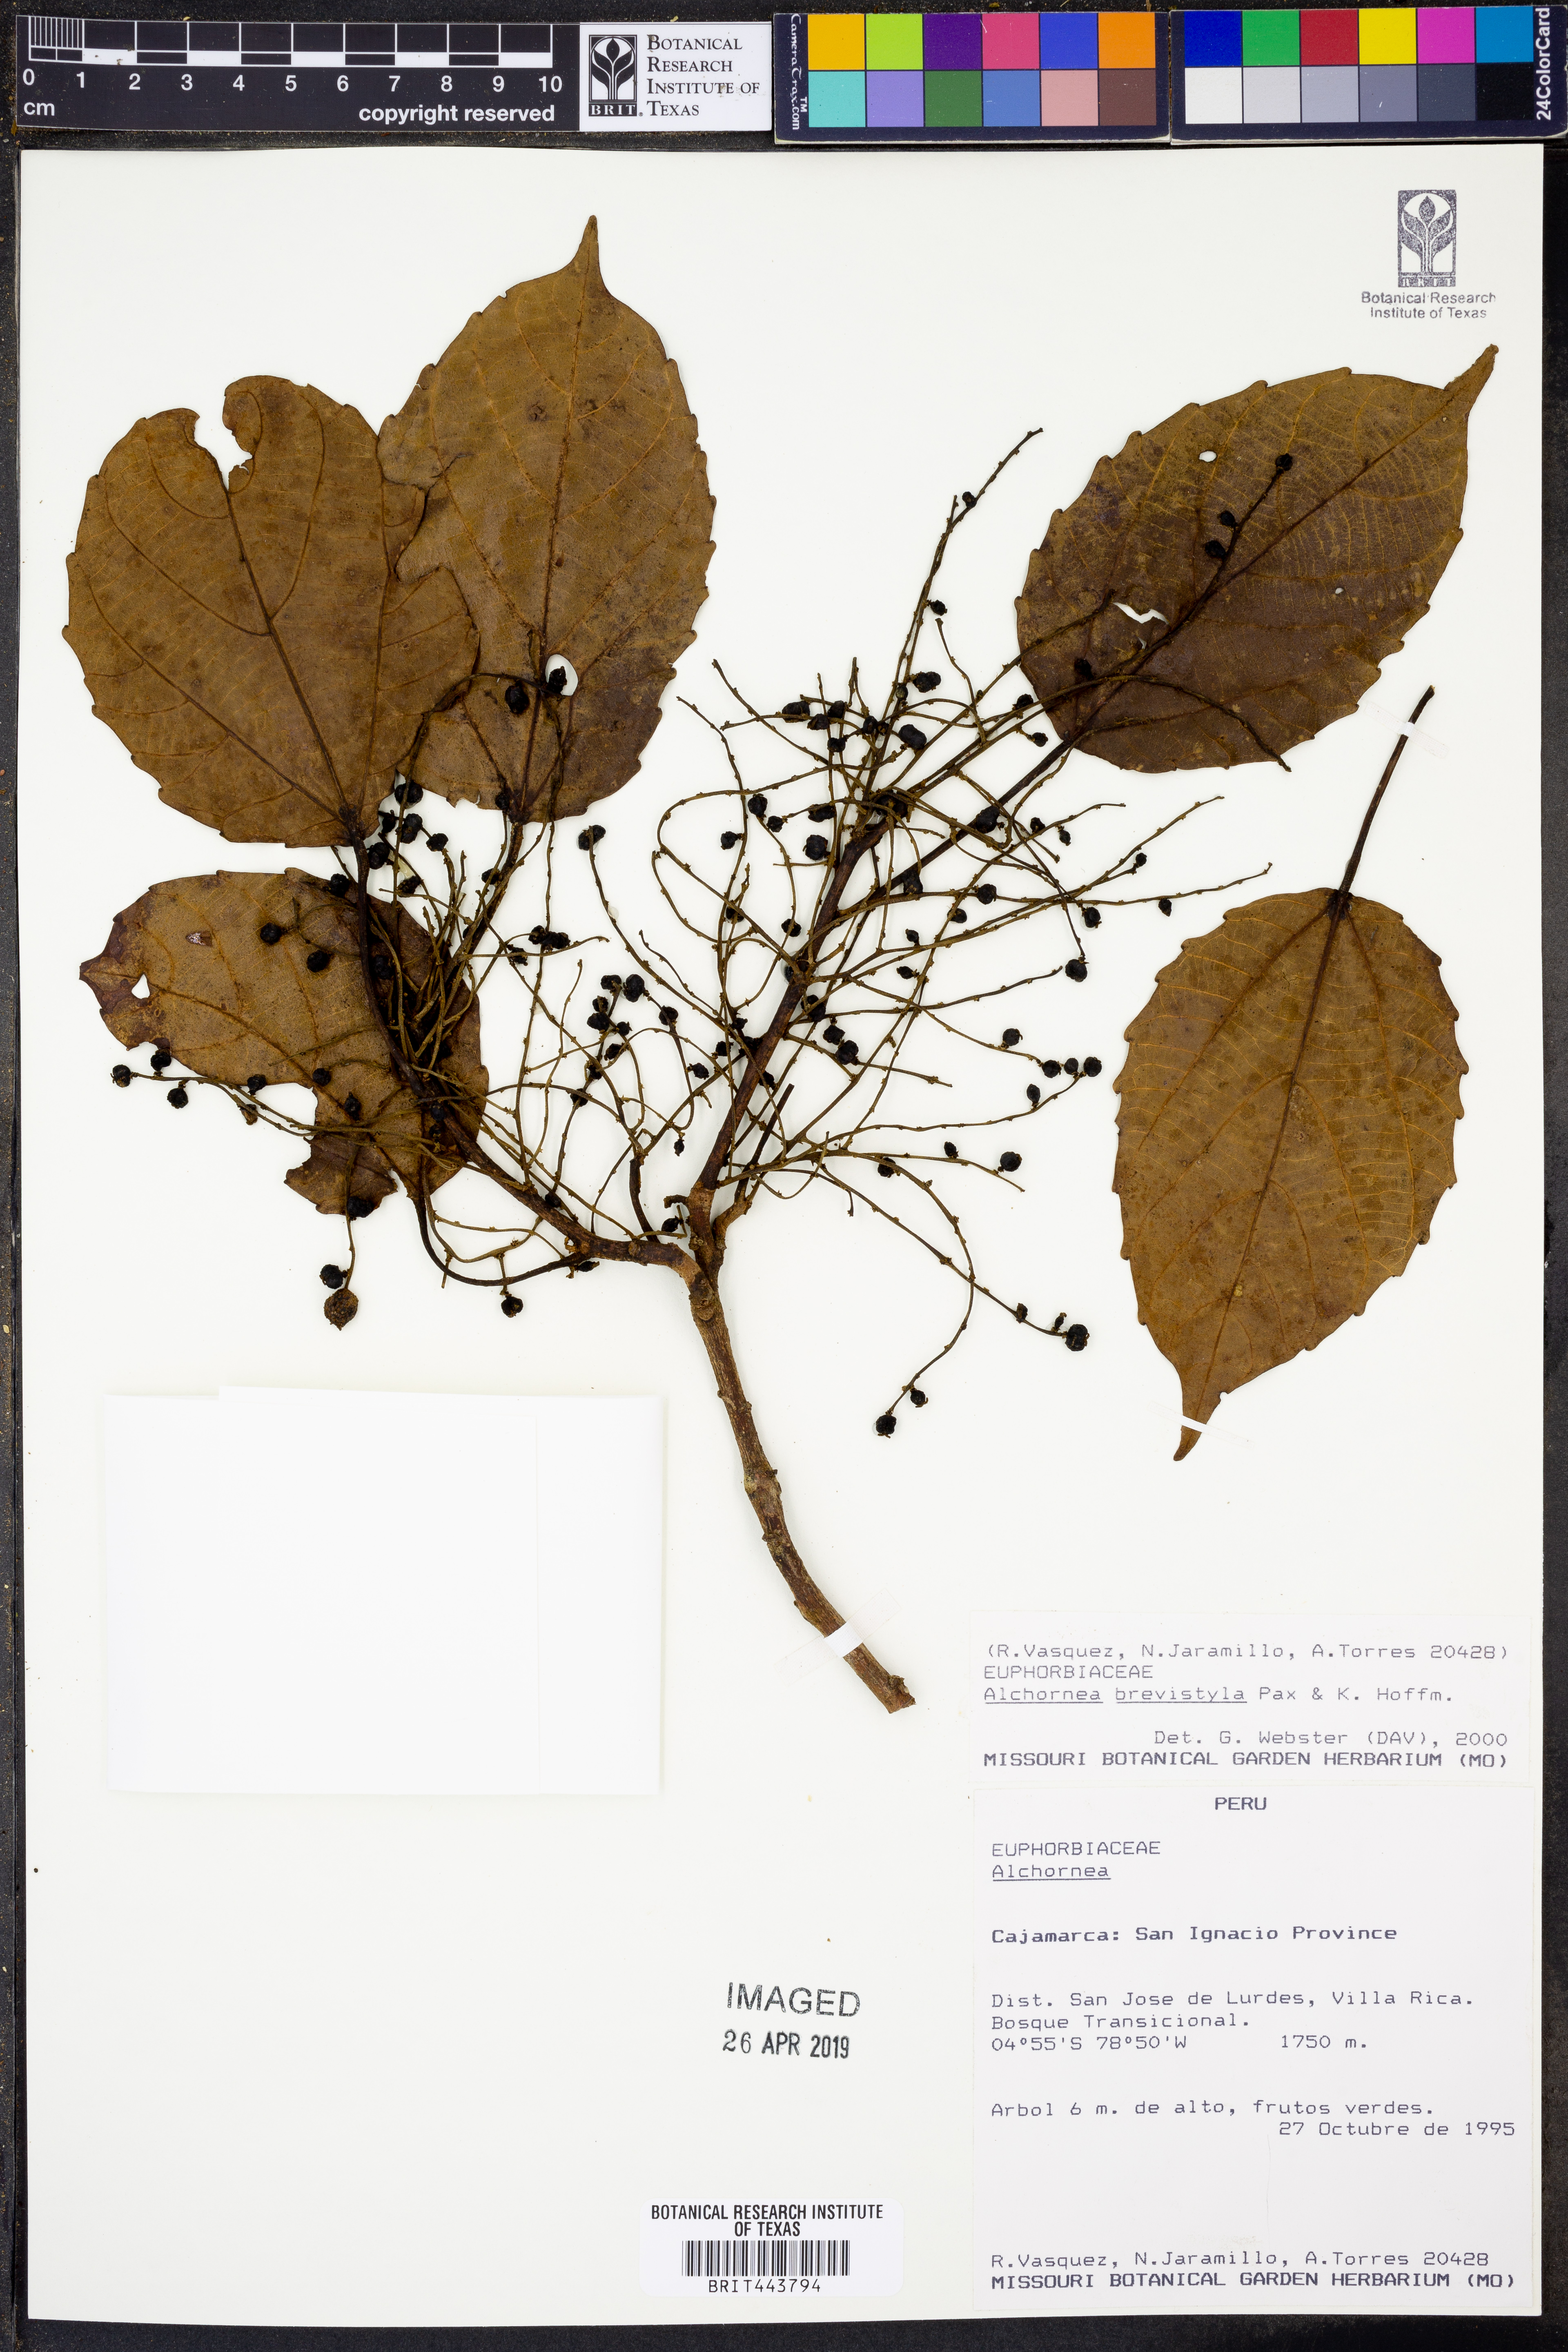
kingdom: Plantae
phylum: Tracheophyta
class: Magnoliopsida
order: Malpighiales
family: Euphorbiaceae
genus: Alchornea
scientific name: Alchornea triplinervia
